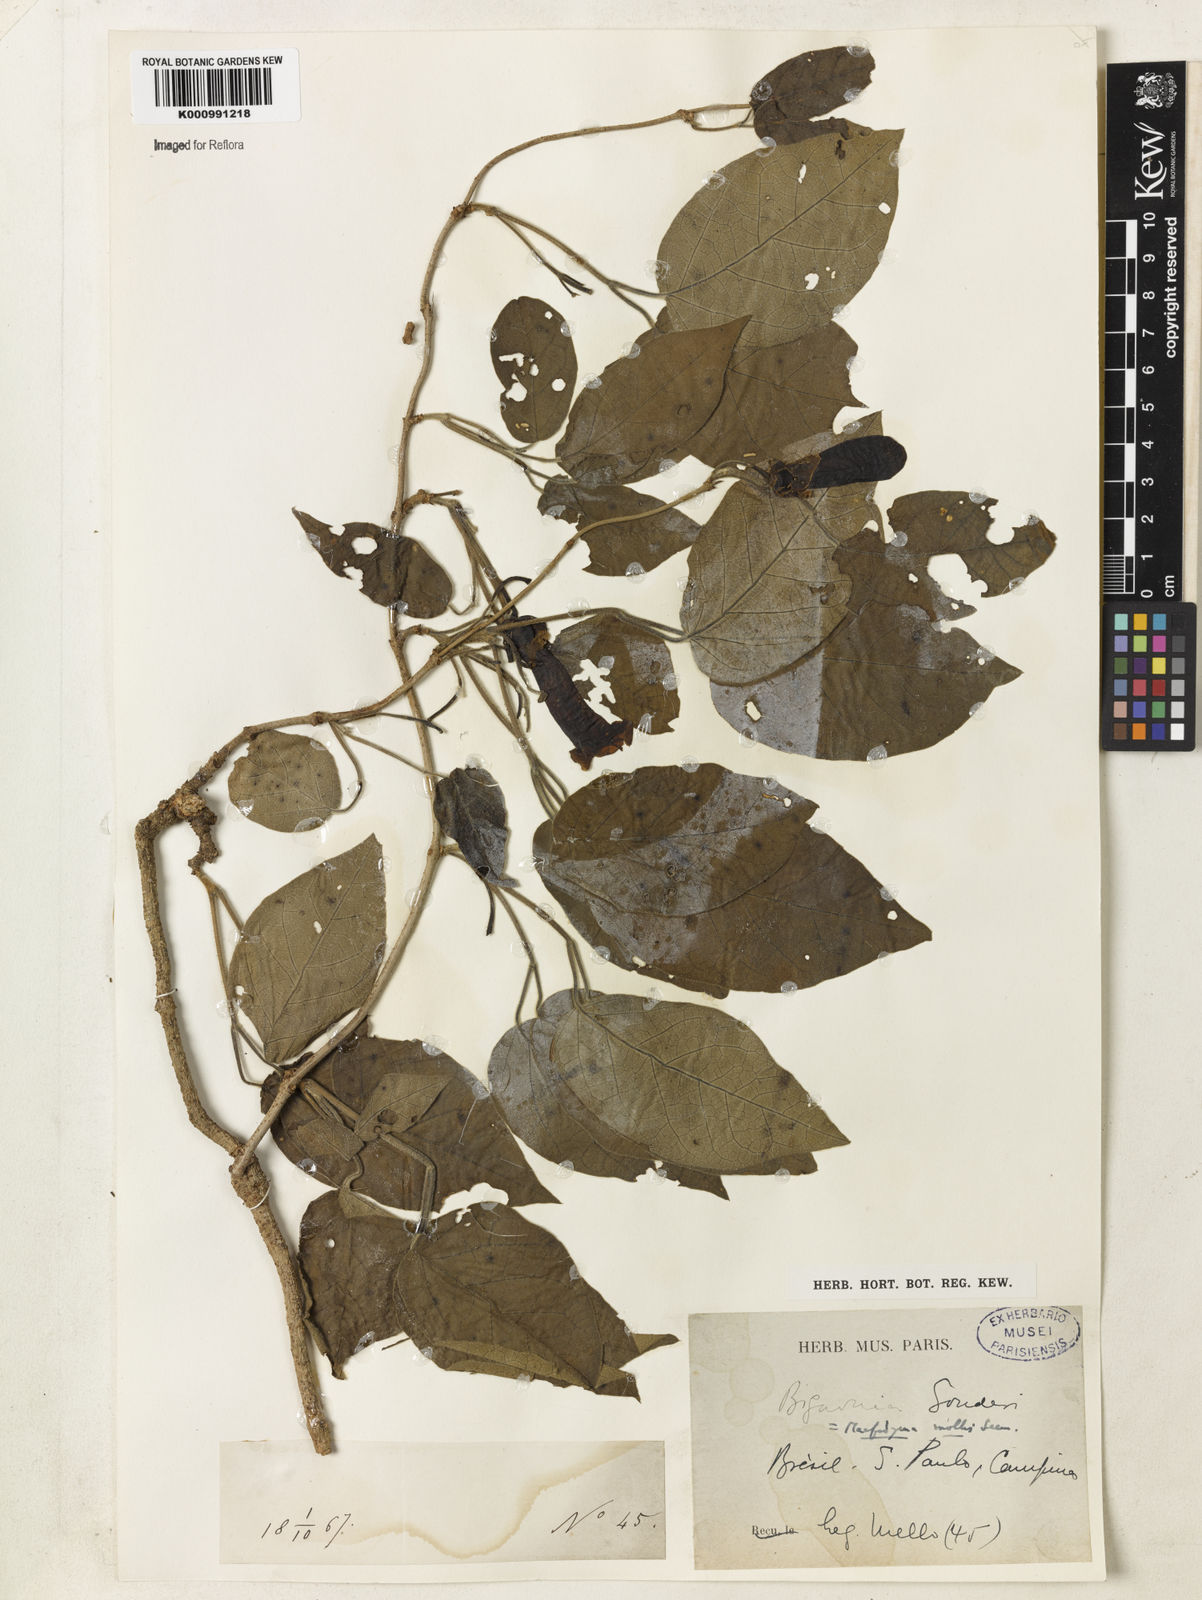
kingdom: Plantae
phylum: Tracheophyta
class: Magnoliopsida
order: Lamiales
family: Bignoniaceae
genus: Dolichandra
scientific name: Dolichandra hispida
